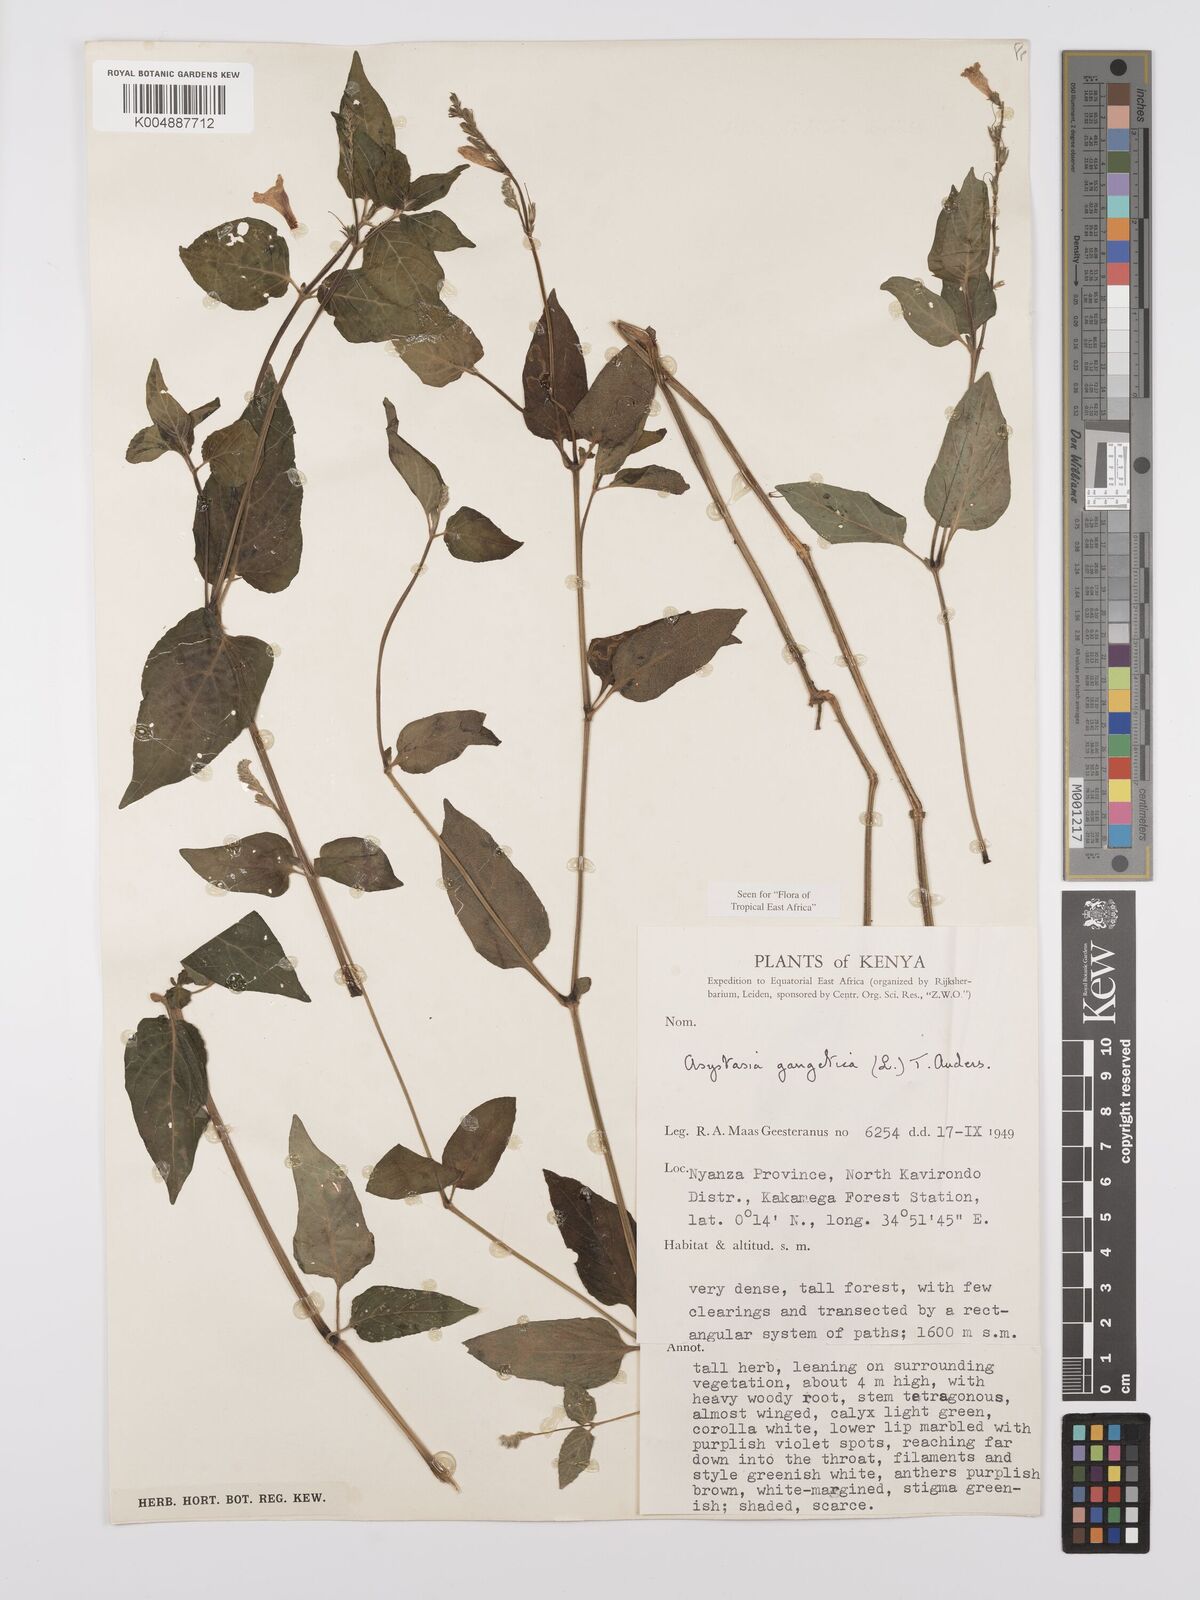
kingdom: Plantae
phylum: Tracheophyta
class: Magnoliopsida
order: Lamiales
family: Acanthaceae
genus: Asystasia
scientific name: Asystasia gangetica
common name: Chinese violet
